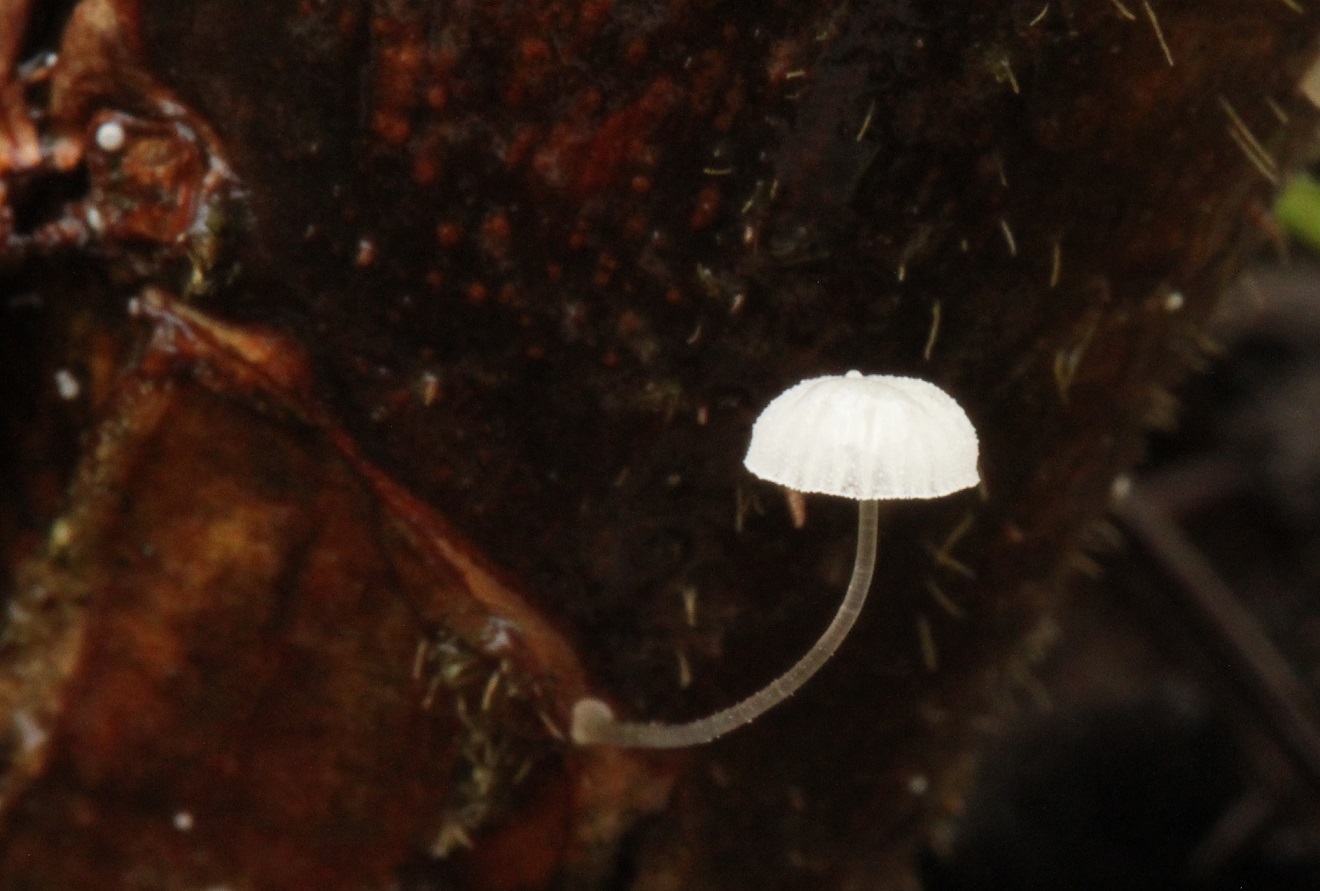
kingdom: Fungi
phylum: Basidiomycota
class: Agaricomycetes
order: Agaricales
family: Mycenaceae
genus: Mycena
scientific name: Mycena tenerrima
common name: pudret huesvamp
